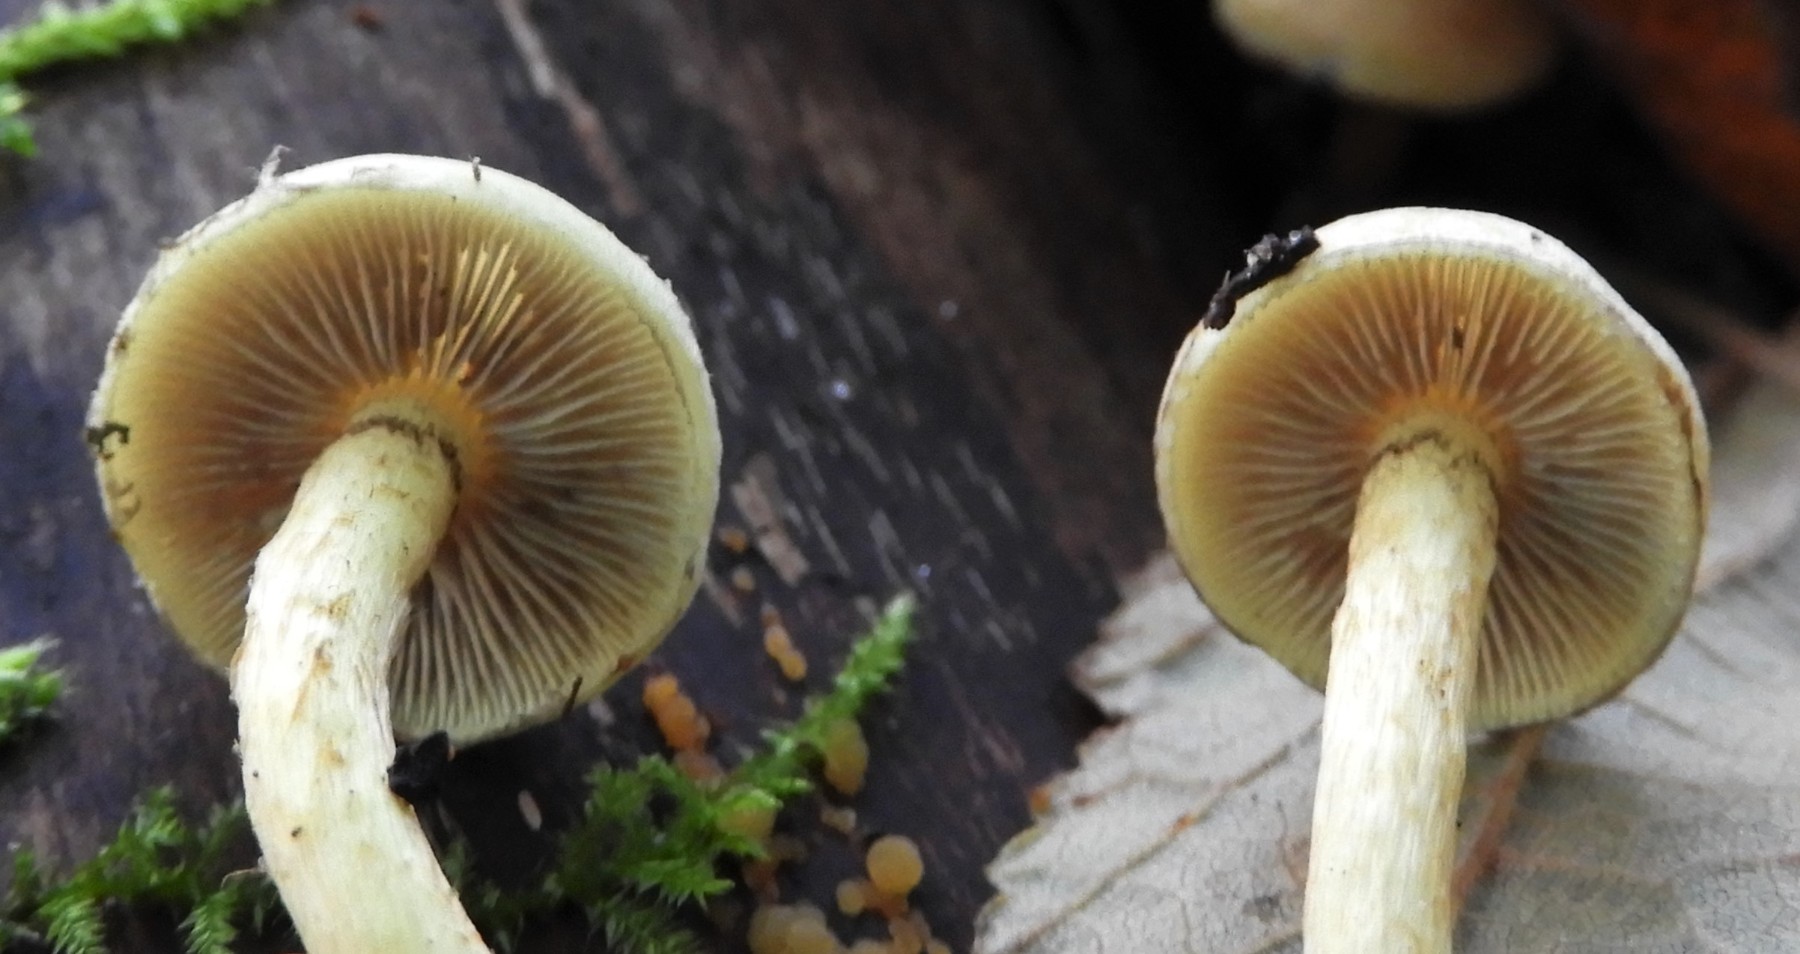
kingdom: Fungi
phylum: Basidiomycota
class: Agaricomycetes
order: Agaricales
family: Strophariaceae
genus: Hypholoma
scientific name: Hypholoma fasciculare
